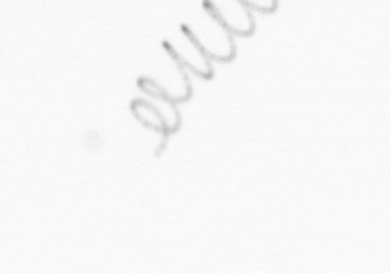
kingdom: Chromista
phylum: Ochrophyta
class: Bacillariophyceae
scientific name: Bacillariophyceae
